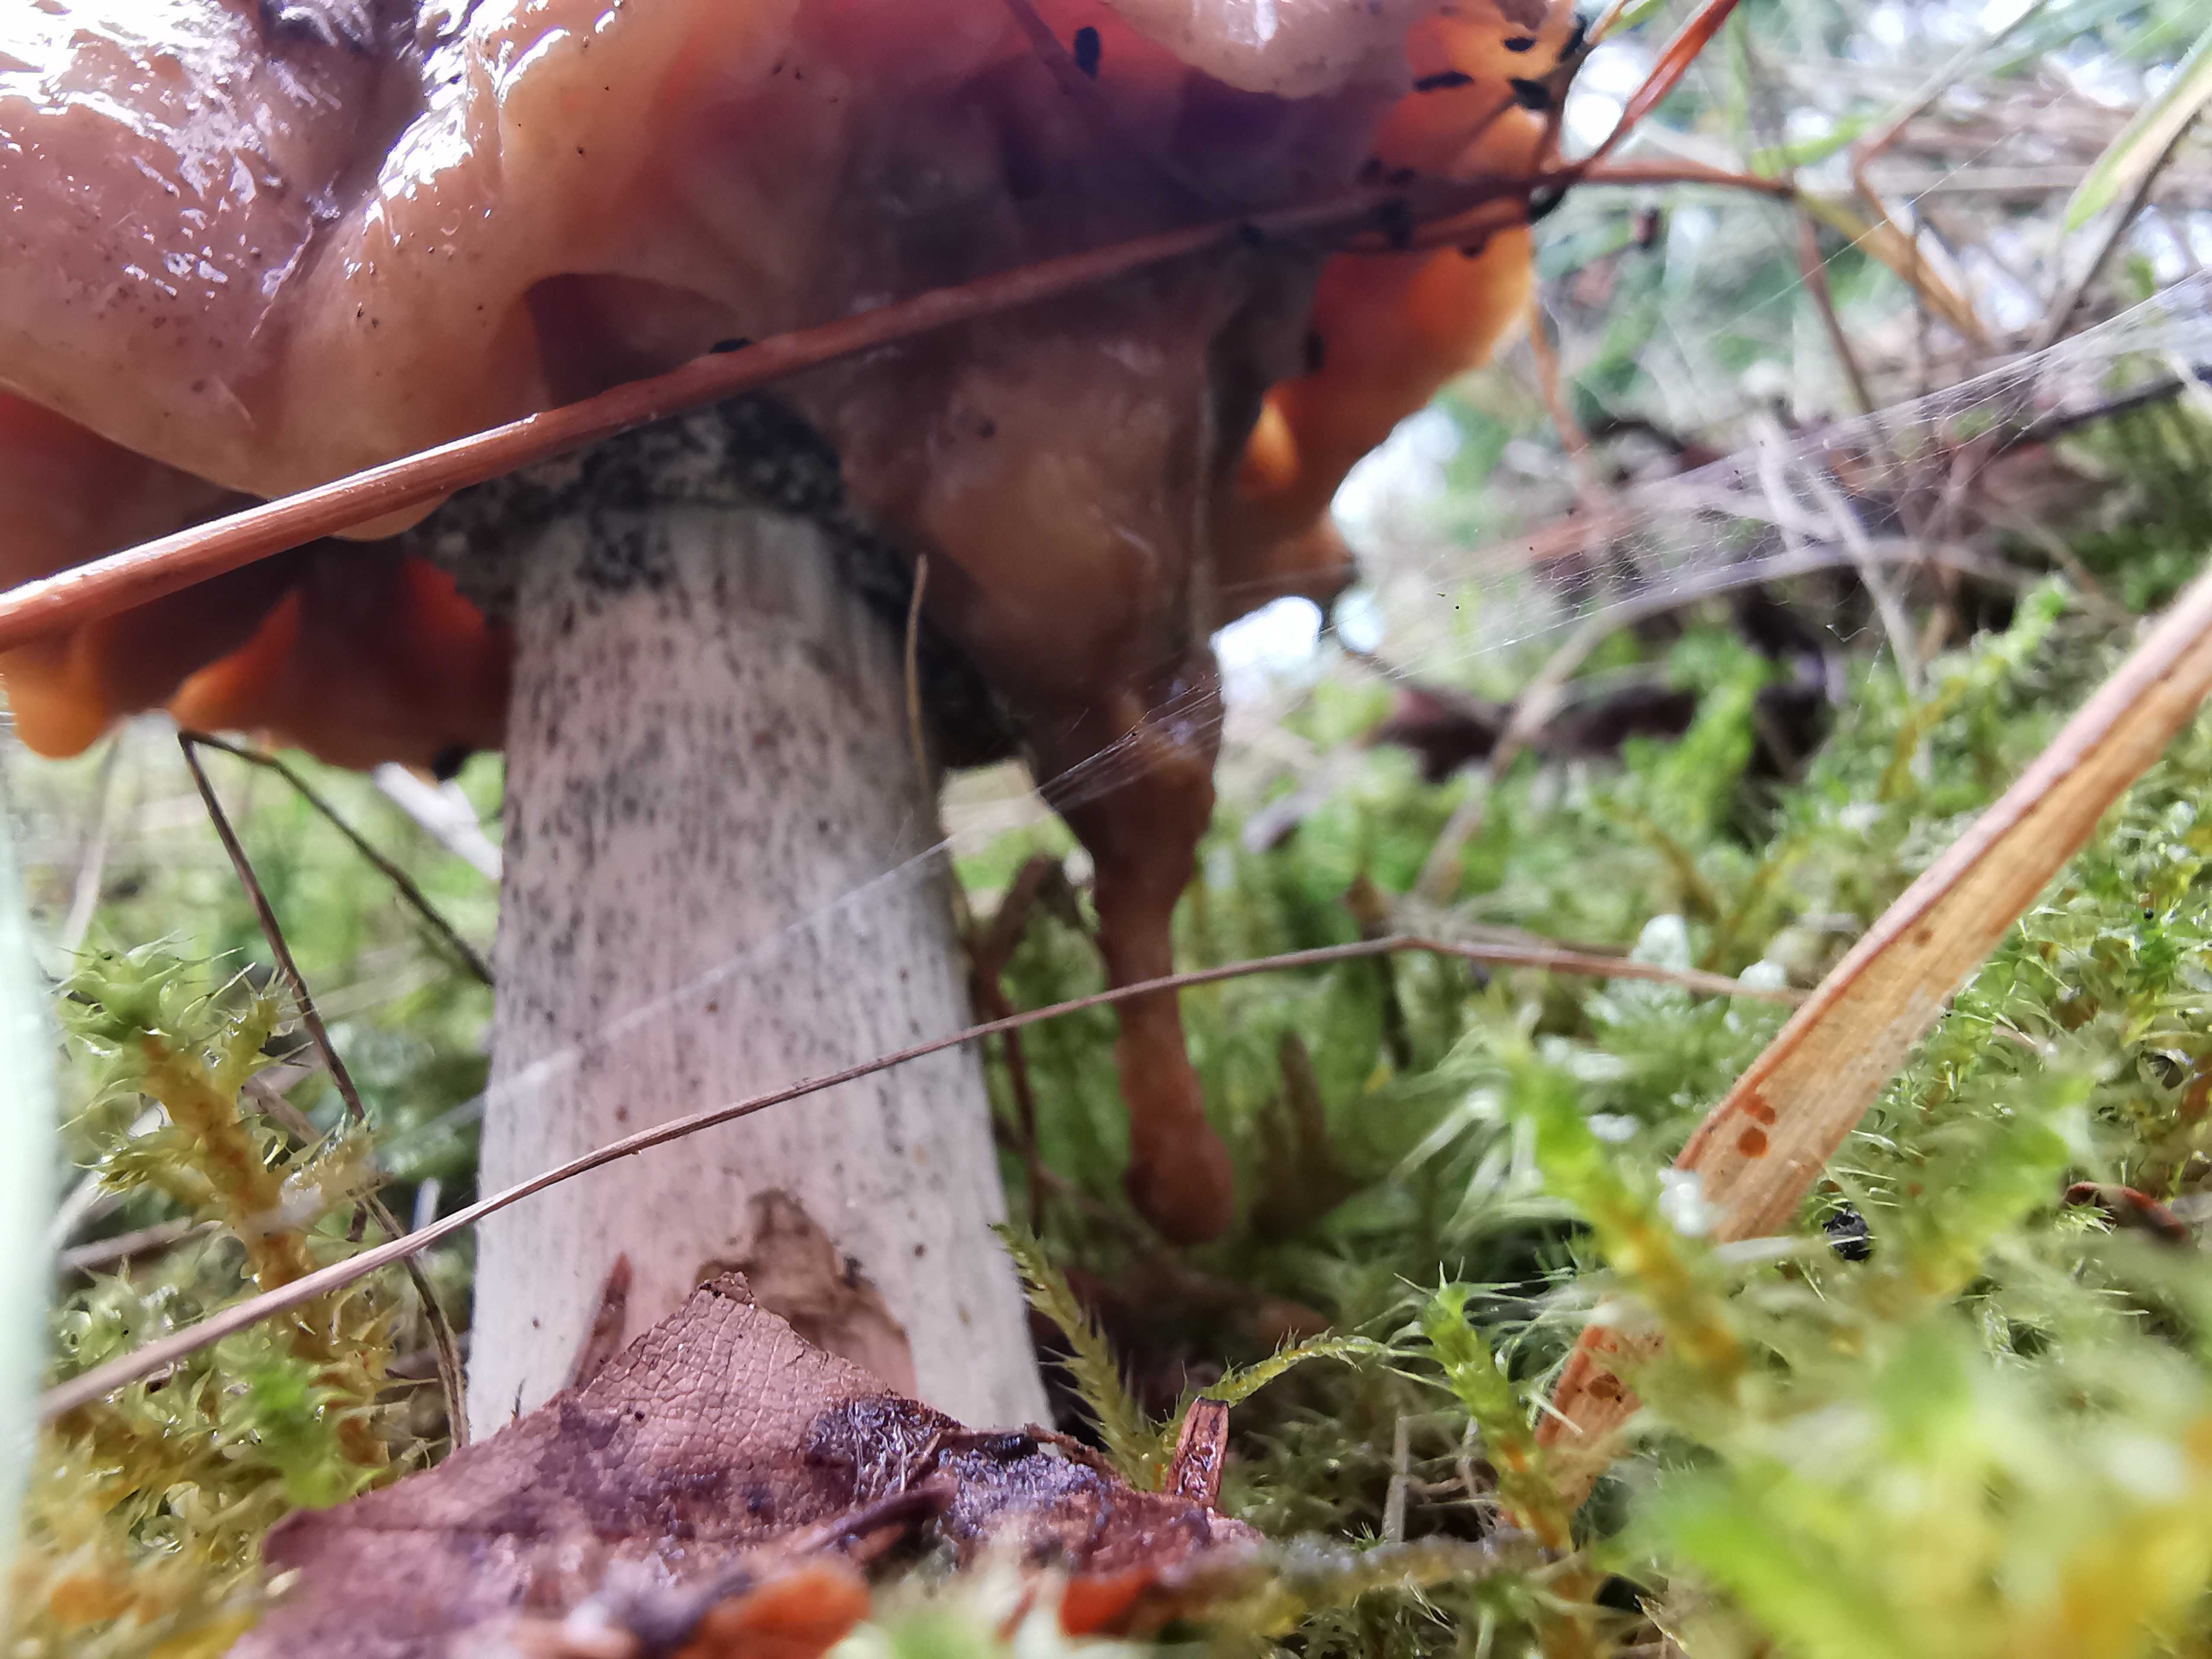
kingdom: Fungi
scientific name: Fungi
